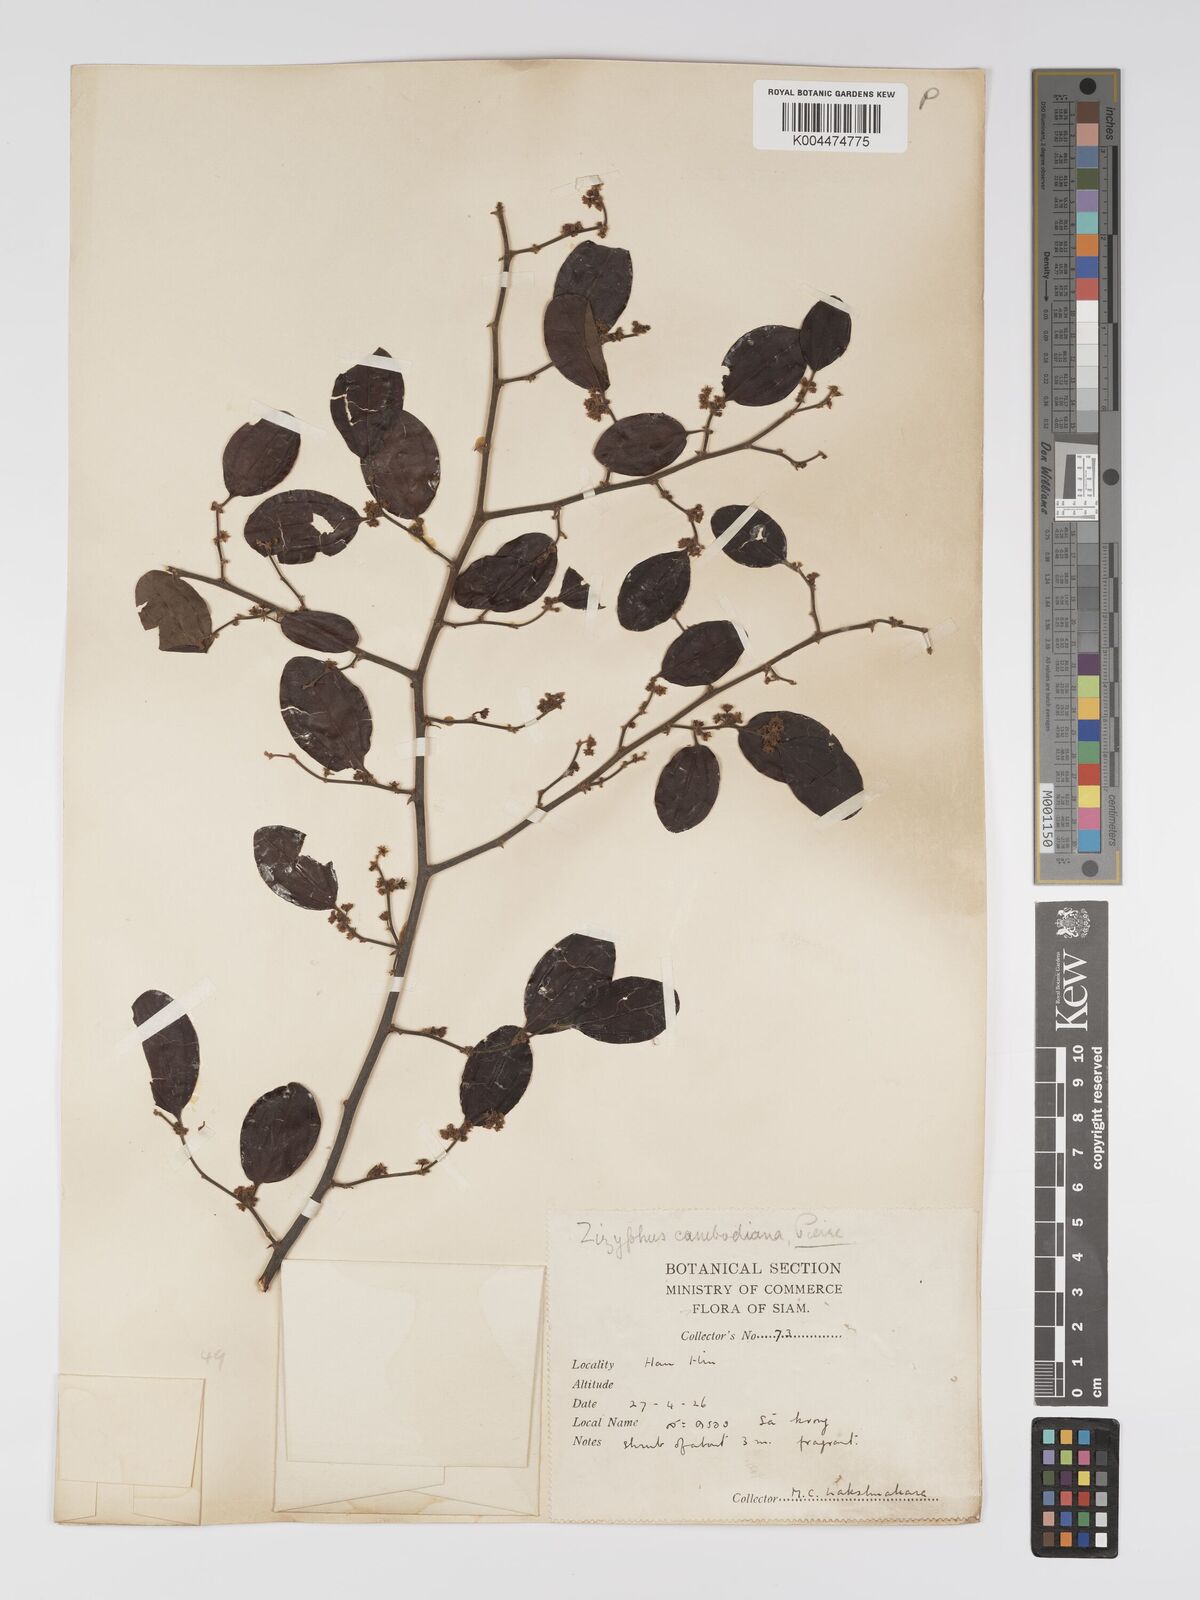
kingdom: Plantae
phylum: Tracheophyta
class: Magnoliopsida
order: Rosales
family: Rhamnaceae
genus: Ziziphus
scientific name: Ziziphus cambodiana
